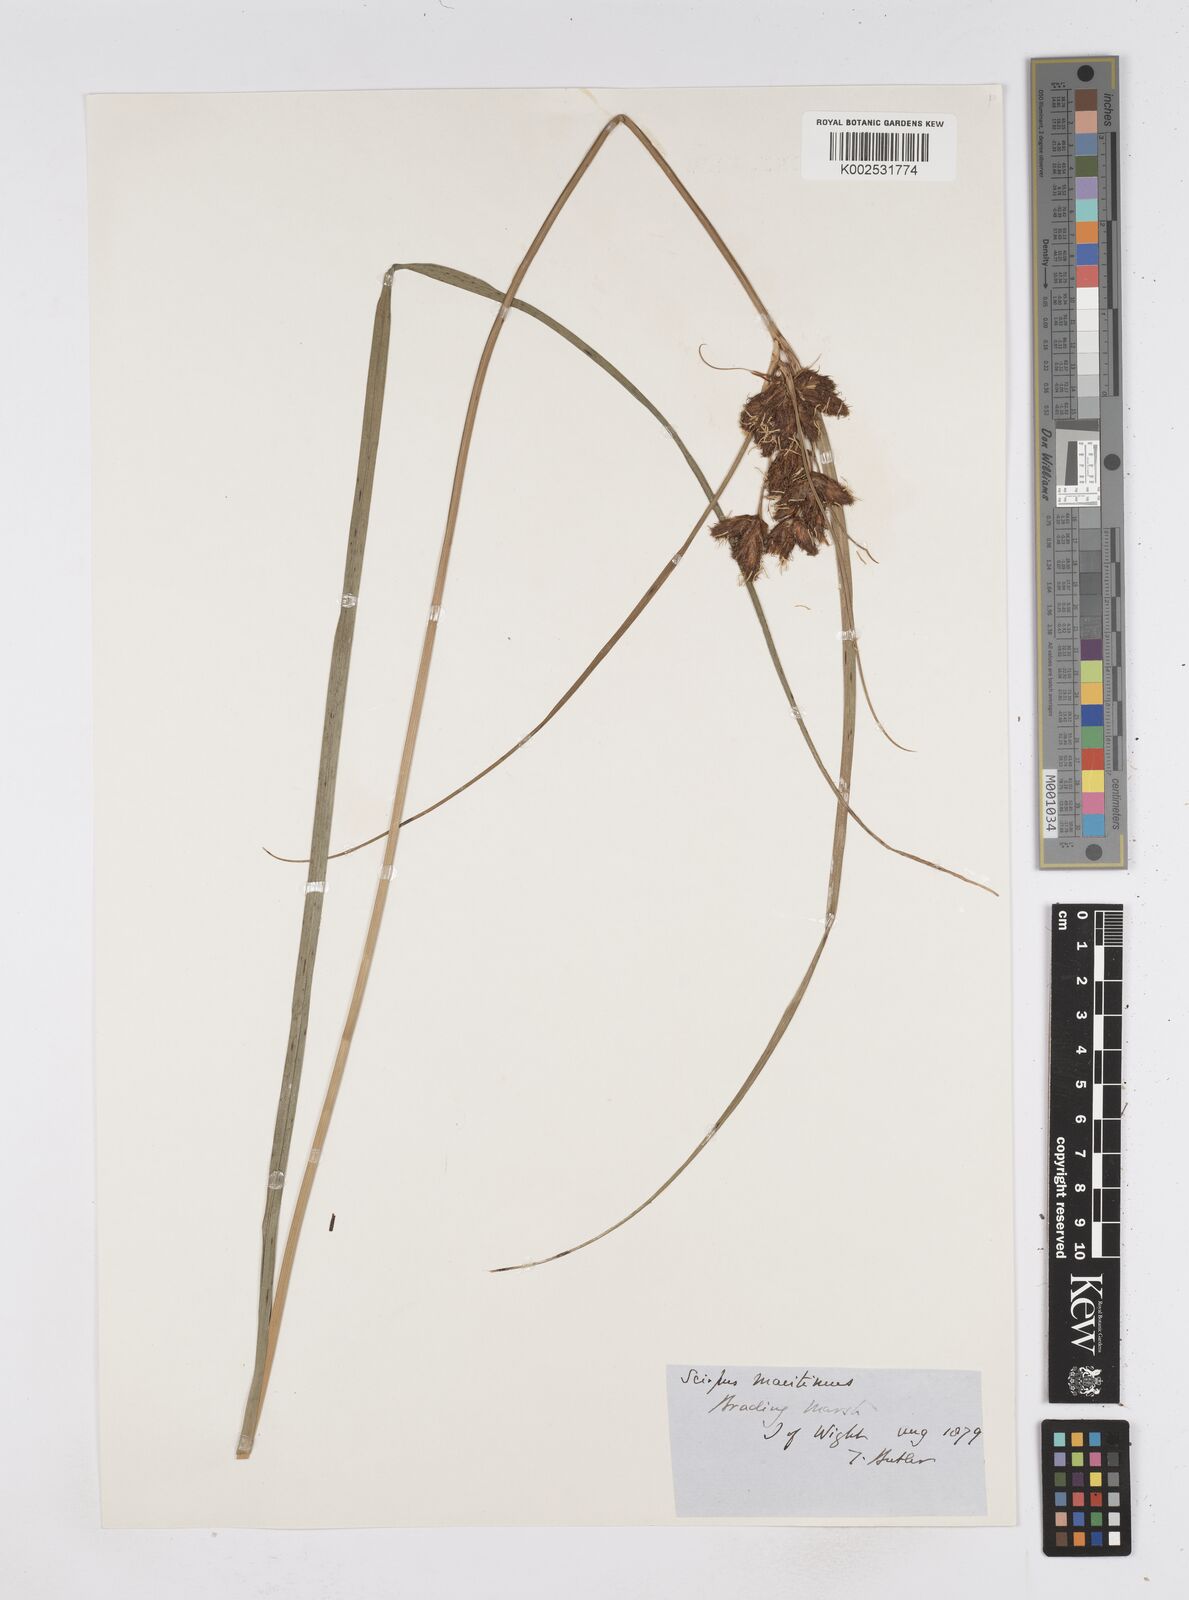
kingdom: Plantae
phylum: Tracheophyta
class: Liliopsida
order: Poales
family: Cyperaceae
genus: Bolboschoenus
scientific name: Bolboschoenus maritimus
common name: Sea club-rush
